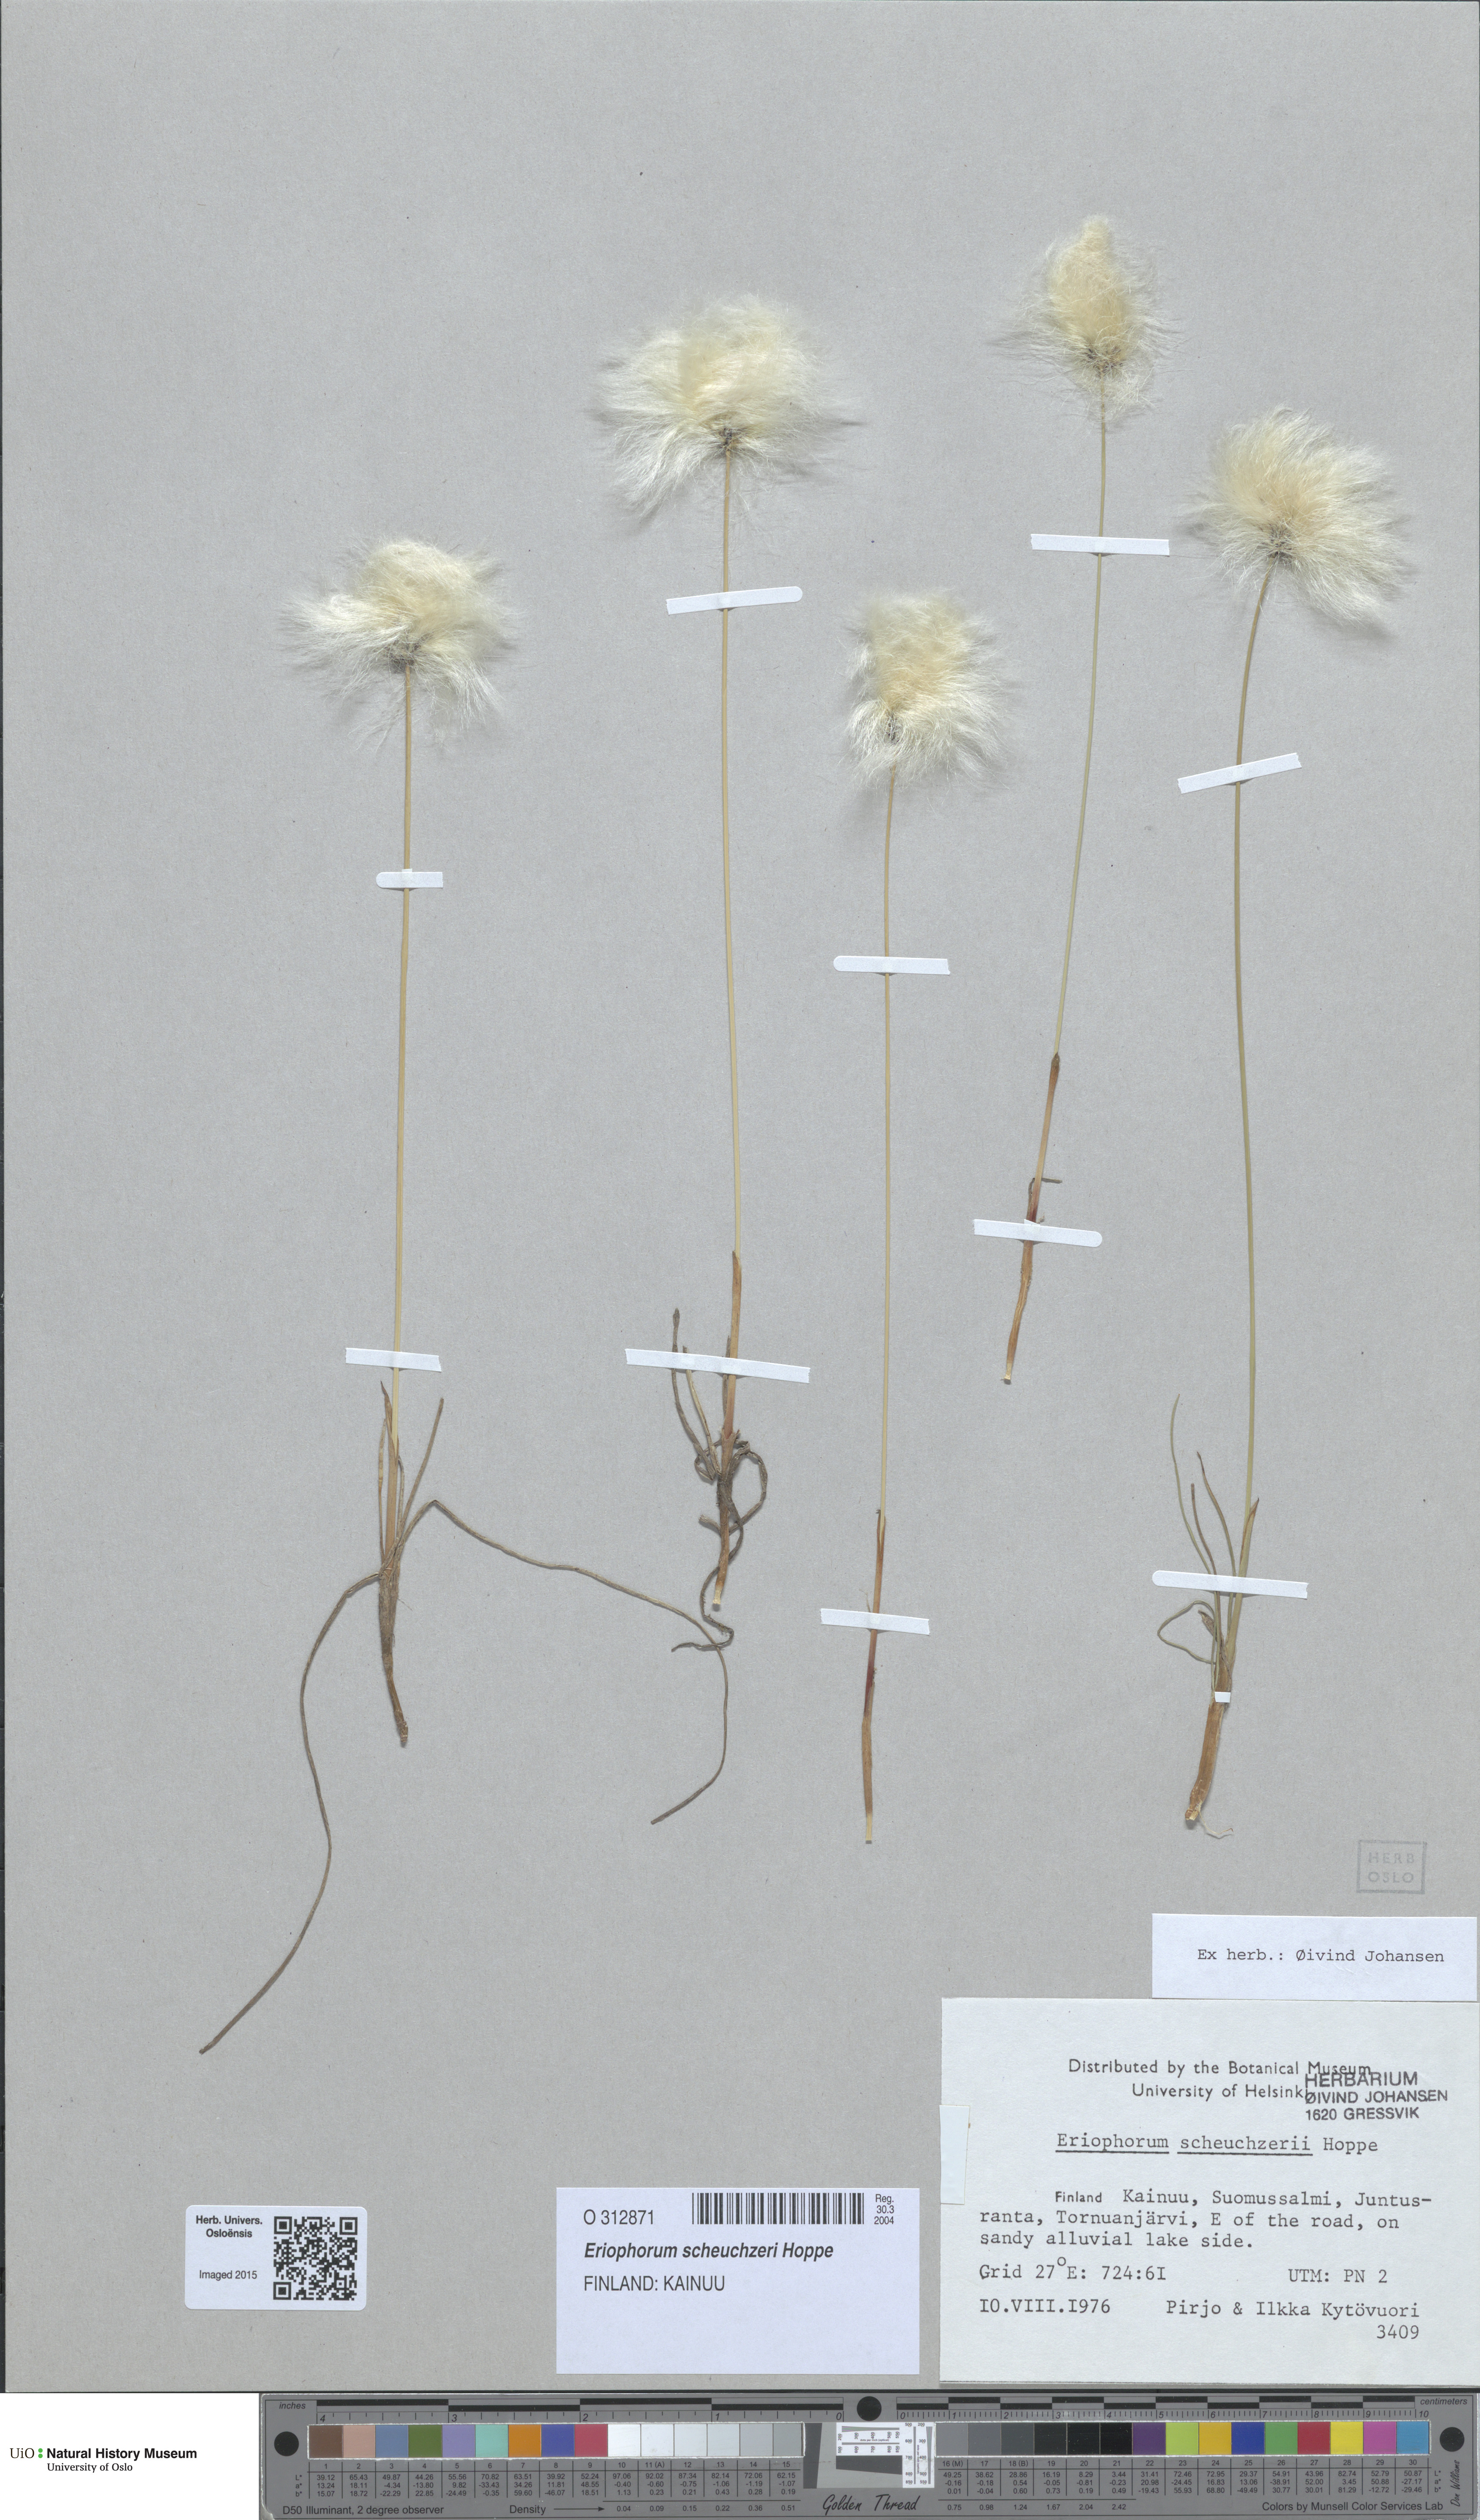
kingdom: Plantae
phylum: Tracheophyta
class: Liliopsida
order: Poales
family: Cyperaceae
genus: Eriophorum
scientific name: Eriophorum scheuchzeri
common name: Scheuchzer's cottongrass
